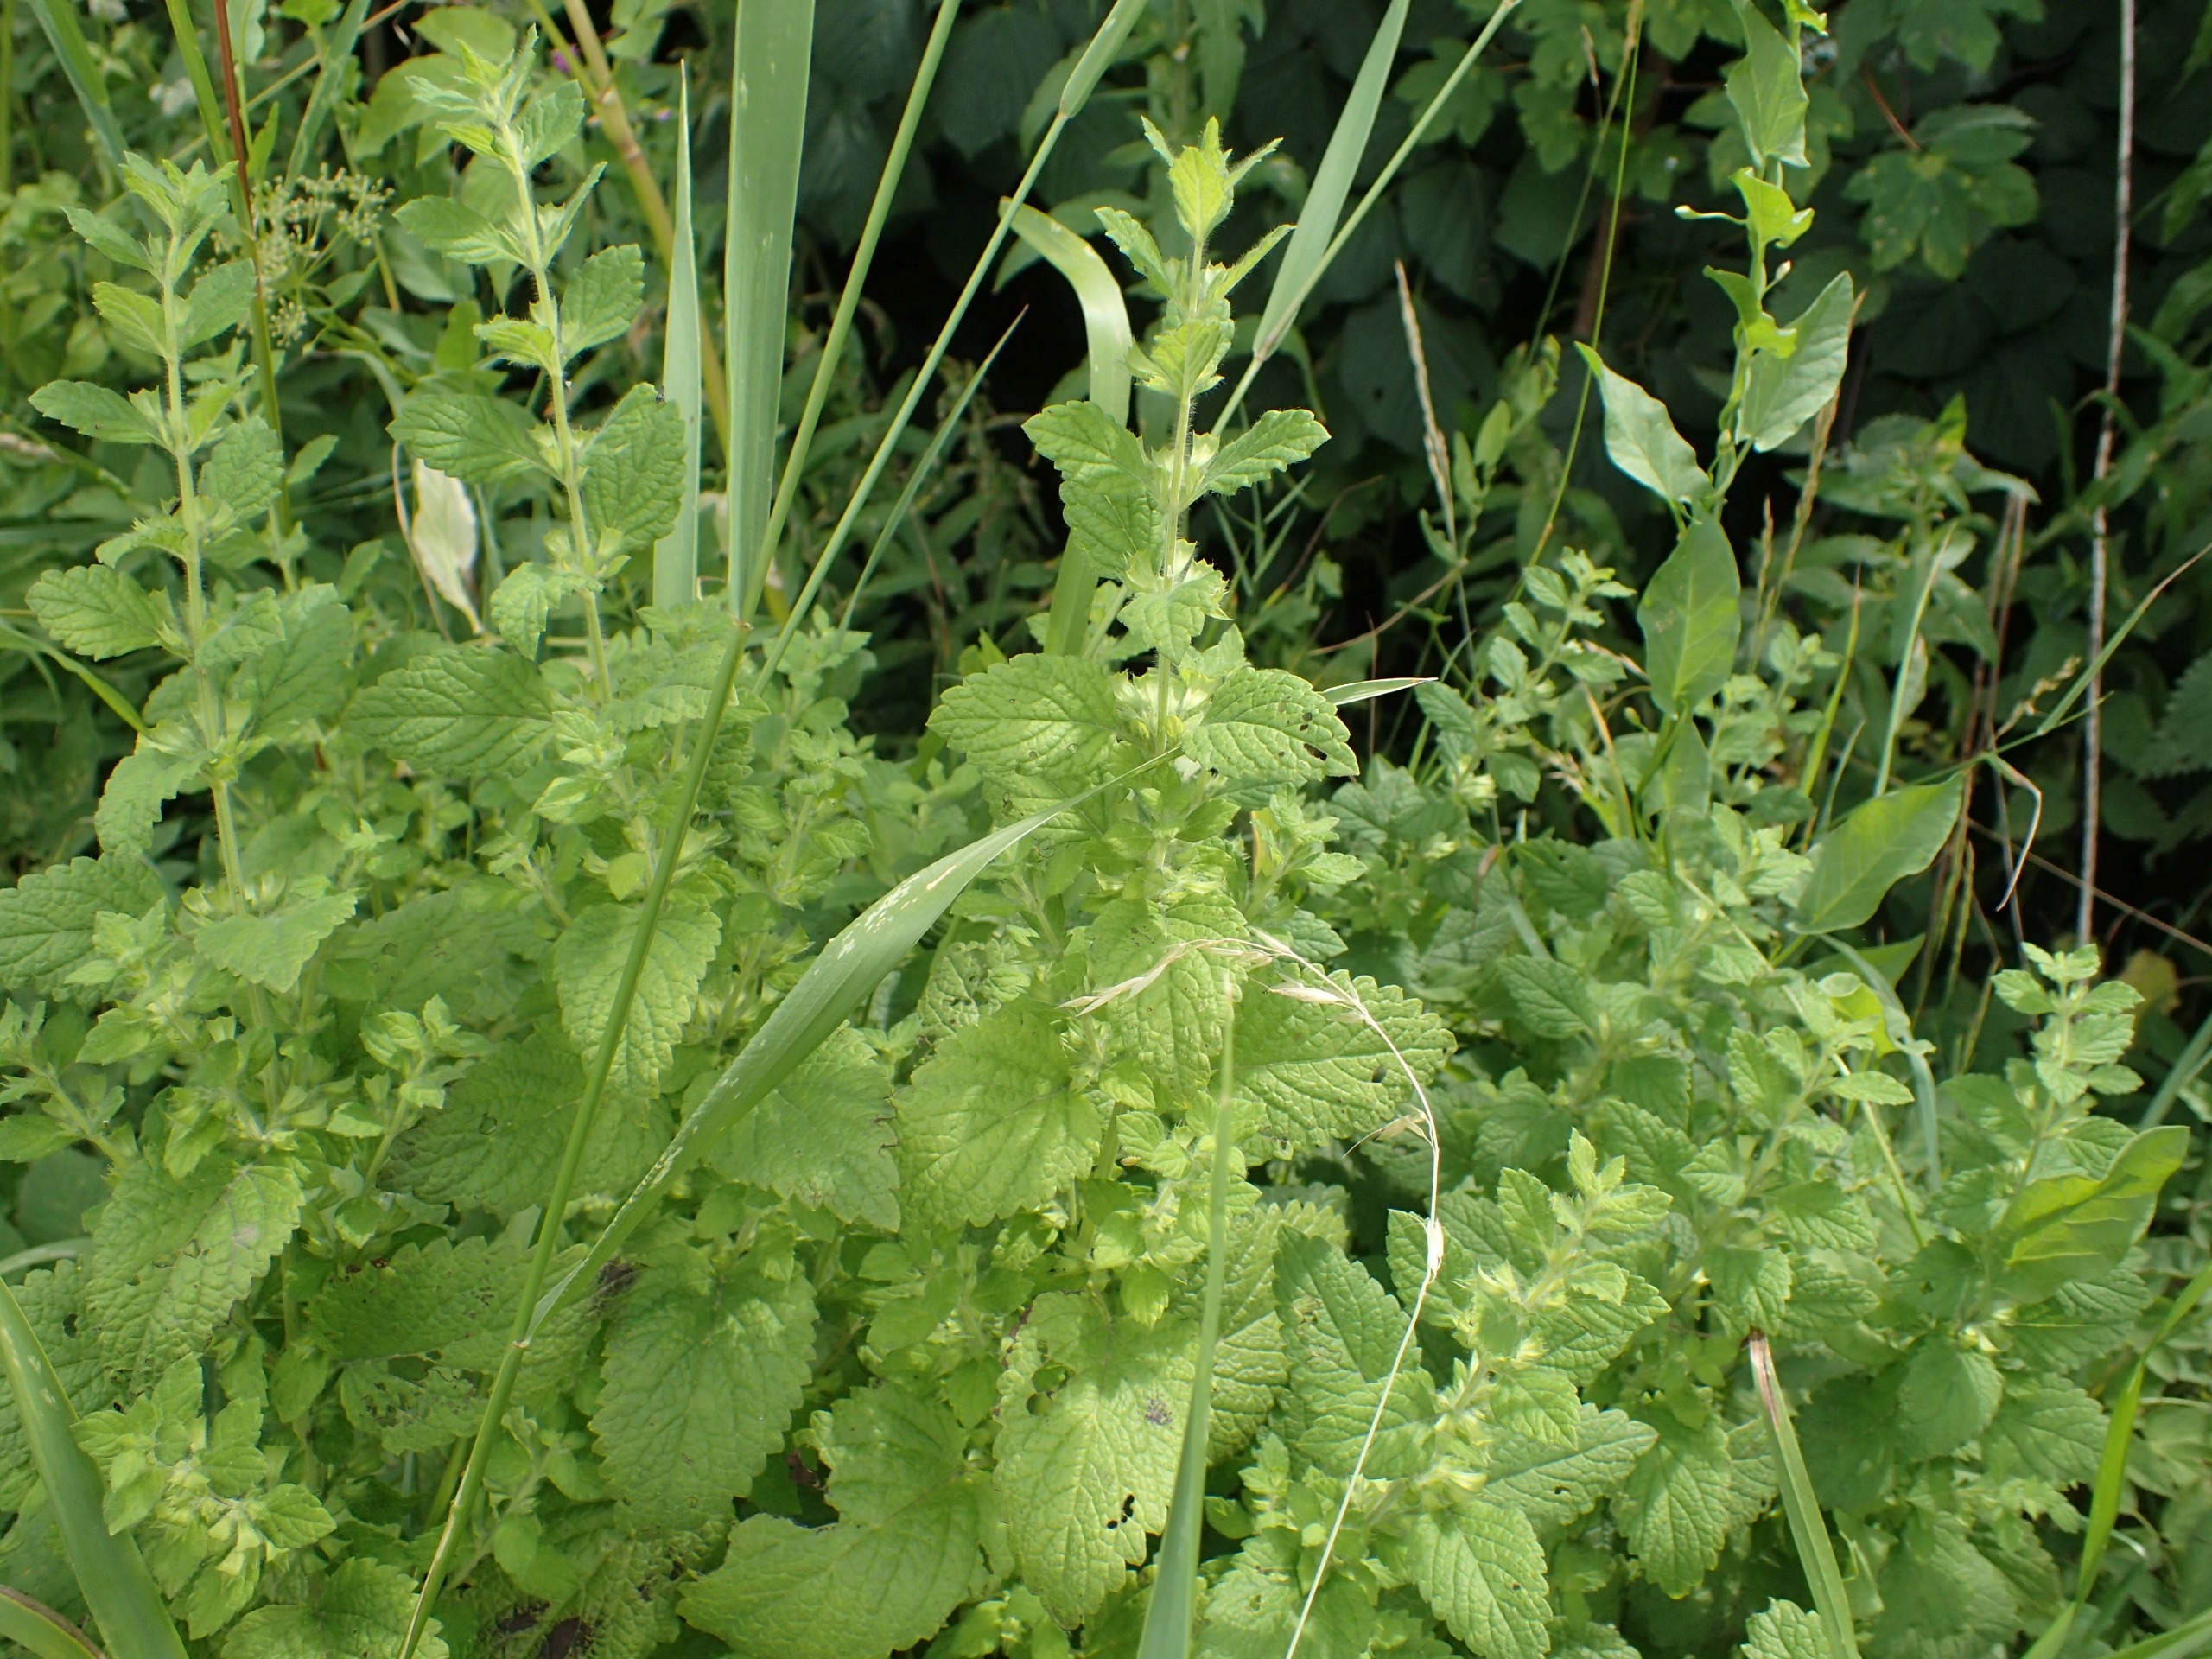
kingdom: Plantae
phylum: Tracheophyta
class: Magnoliopsida
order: Lamiales
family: Lamiaceae
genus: Melissa
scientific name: Melissa officinalis
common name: Citronmelisse
